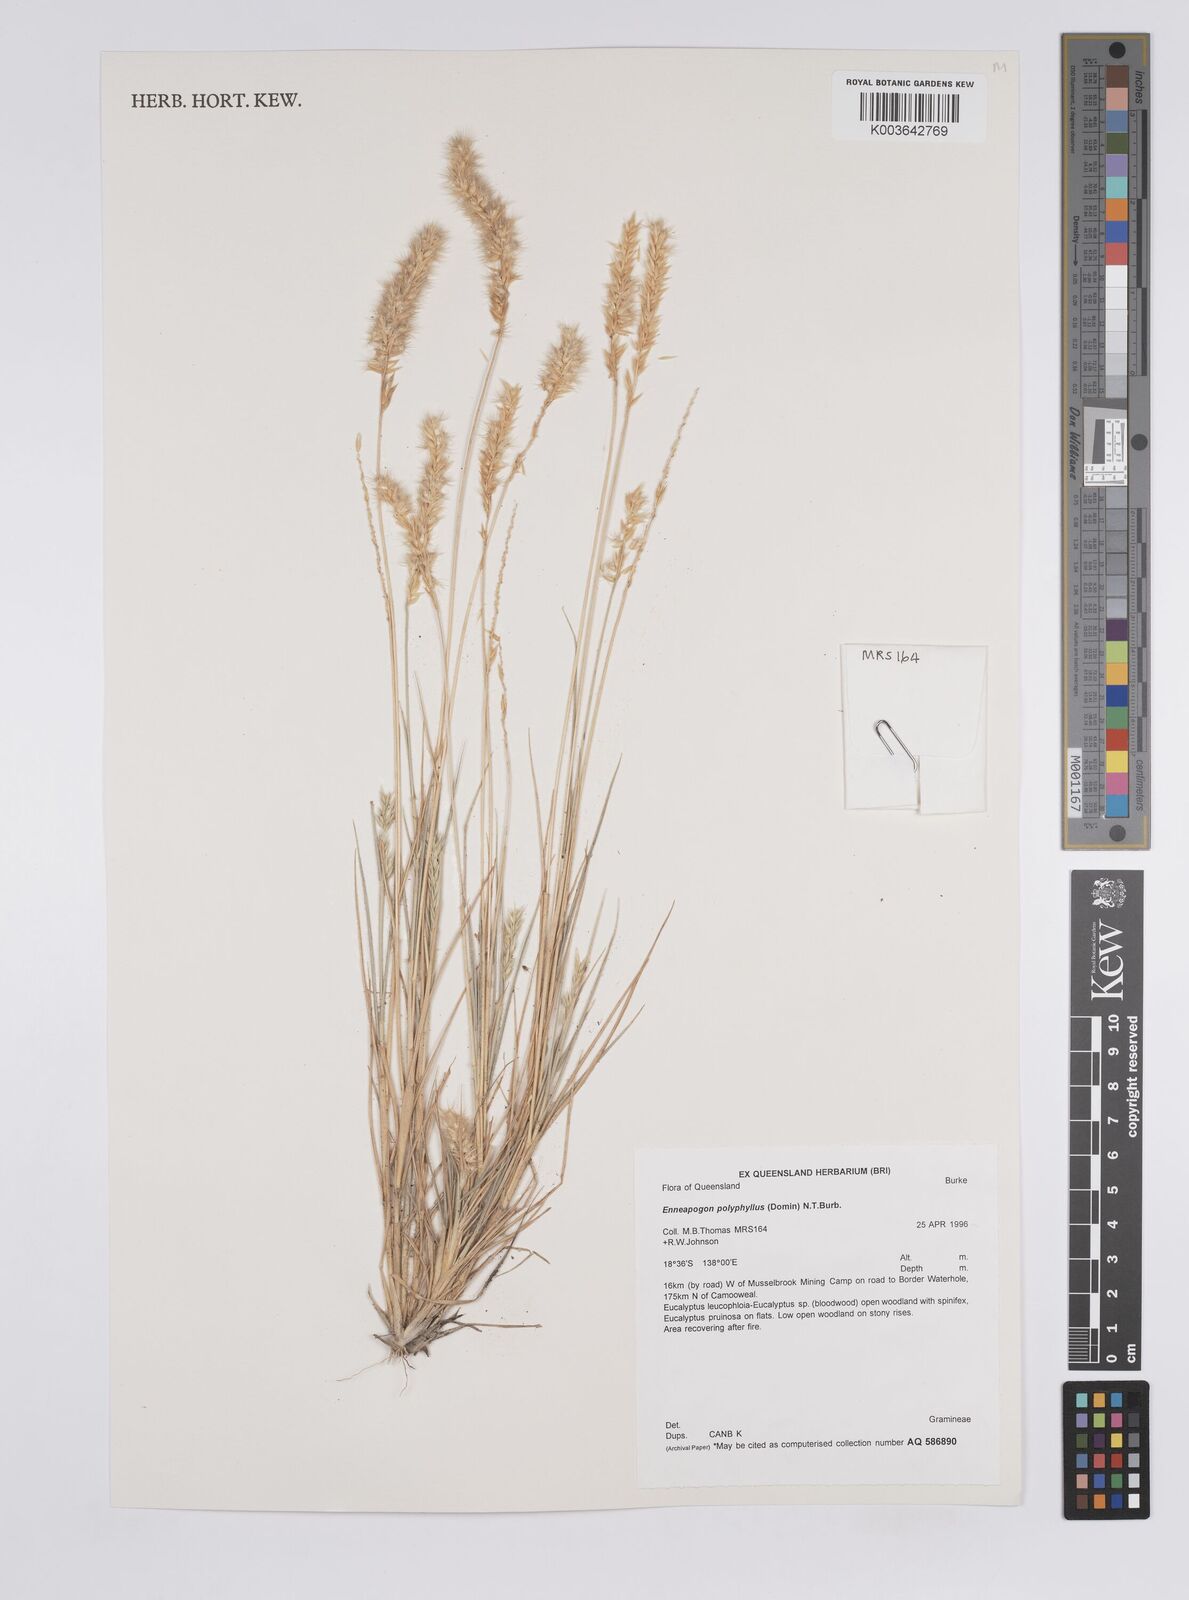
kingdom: Plantae
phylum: Tracheophyta
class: Liliopsida
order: Poales
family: Poaceae
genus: Enneapogon
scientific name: Enneapogon polyphyllus
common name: Leafy nineawn
